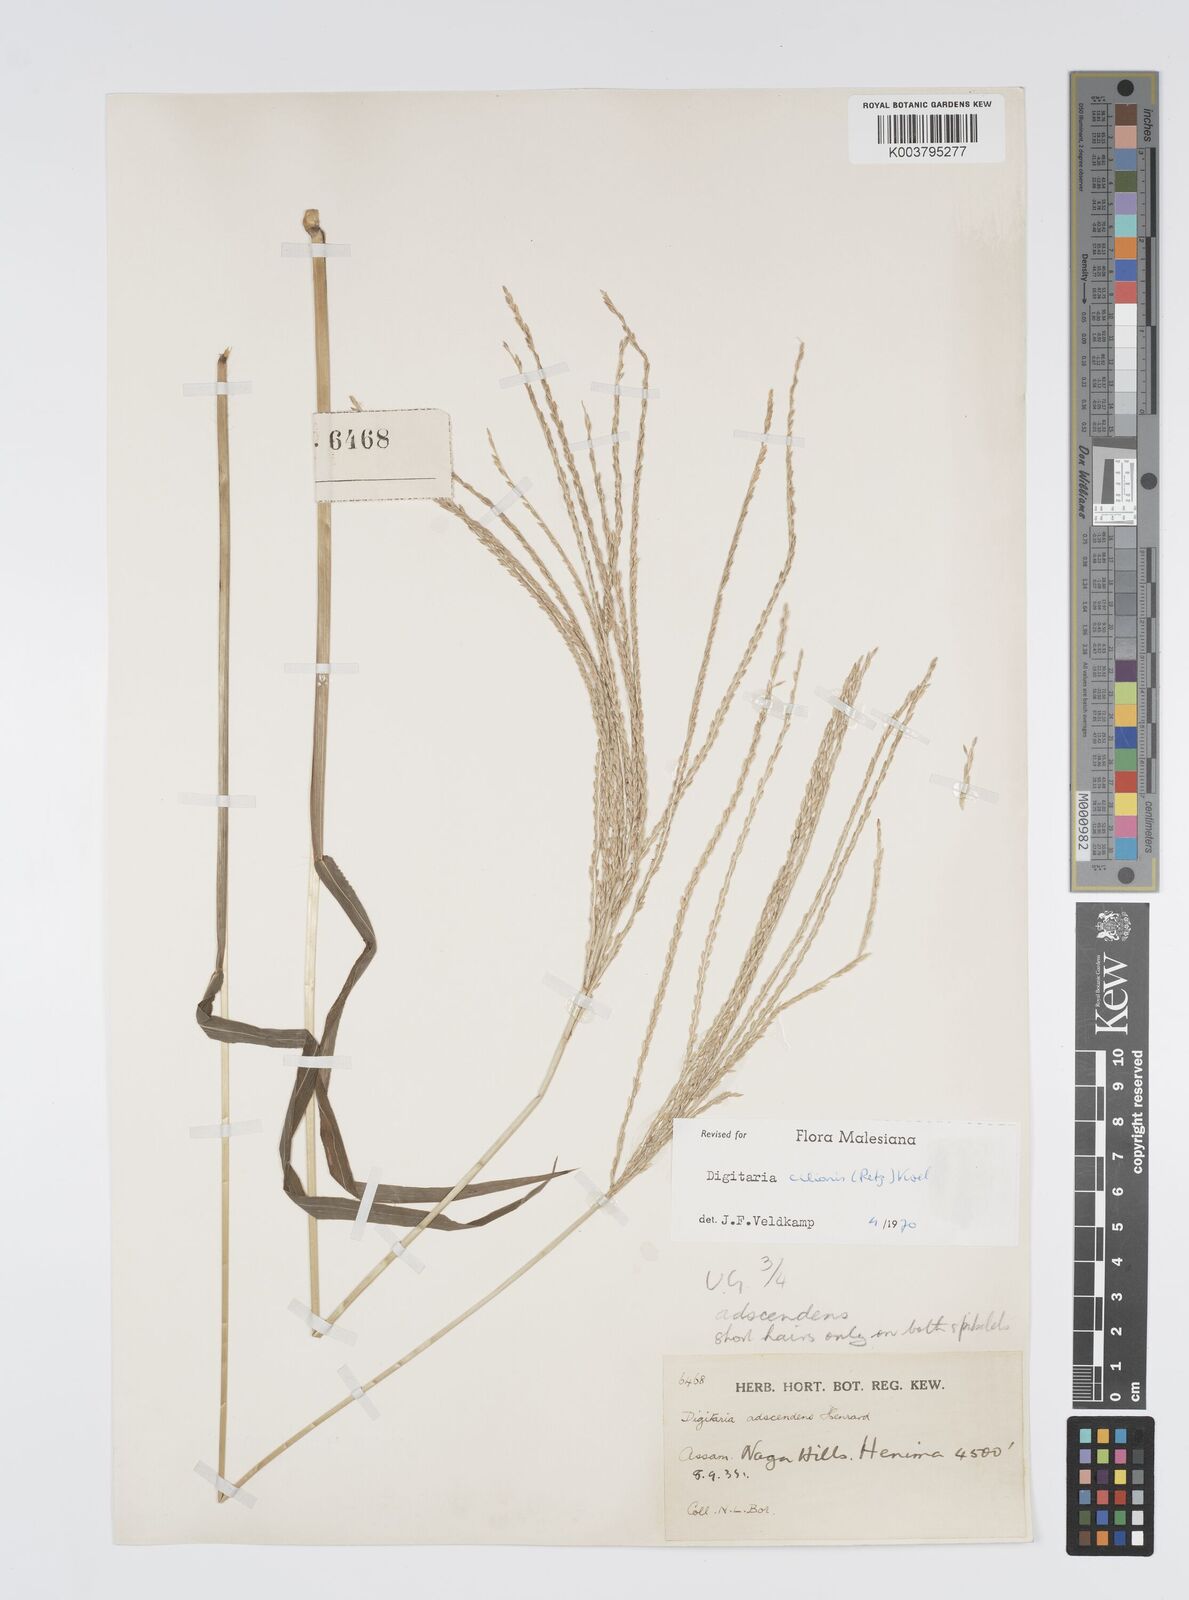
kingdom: Plantae
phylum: Tracheophyta
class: Liliopsida
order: Poales
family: Poaceae
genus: Digitaria
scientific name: Digitaria ciliaris
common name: Tropical finger-grass
